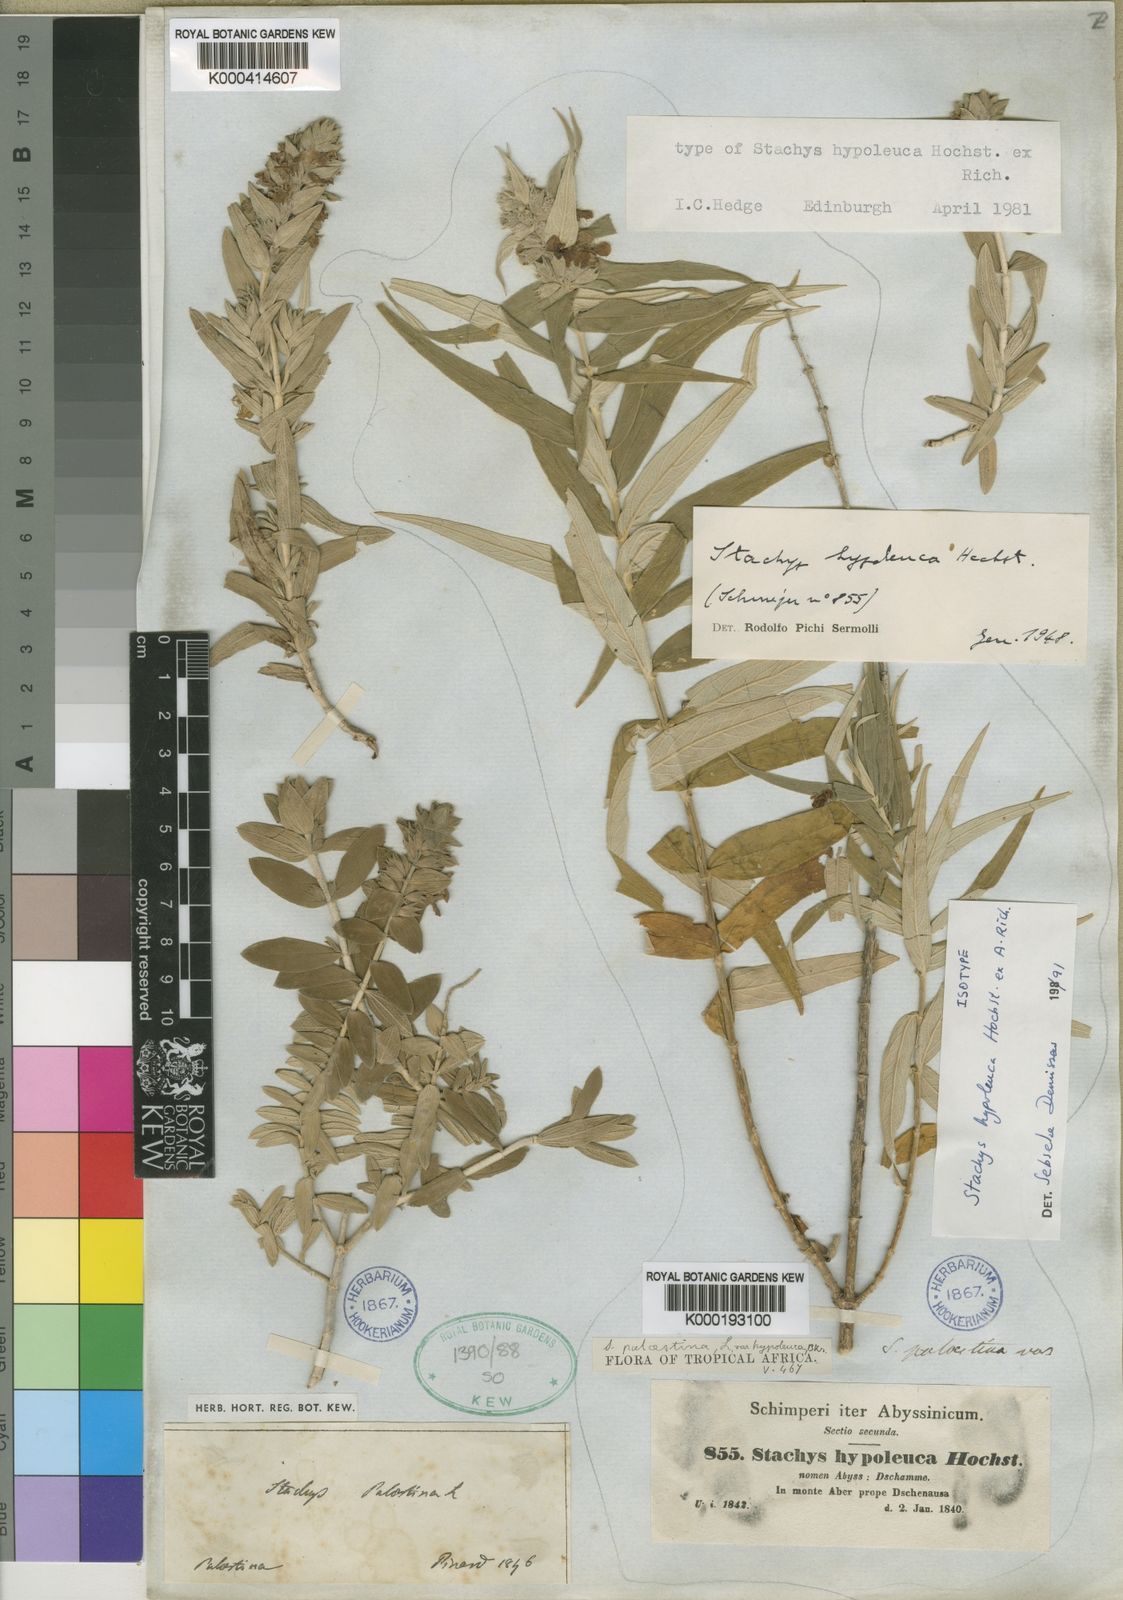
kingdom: Plantae
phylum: Tracheophyta
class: Magnoliopsida
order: Lamiales
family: Lamiaceae
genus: Stachys
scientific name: Stachys hypoleuca
